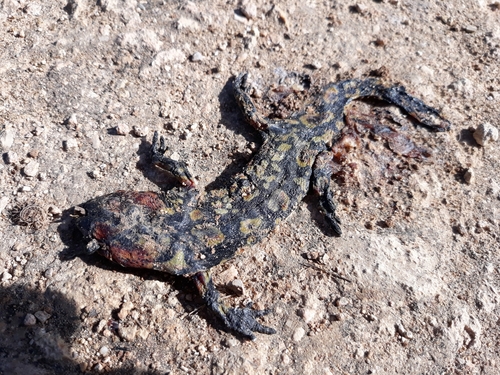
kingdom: Animalia
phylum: Chordata
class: Amphibia
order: Caudata
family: Salamandridae
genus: Salamandra
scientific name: Salamandra salamandra
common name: Fire salamander
